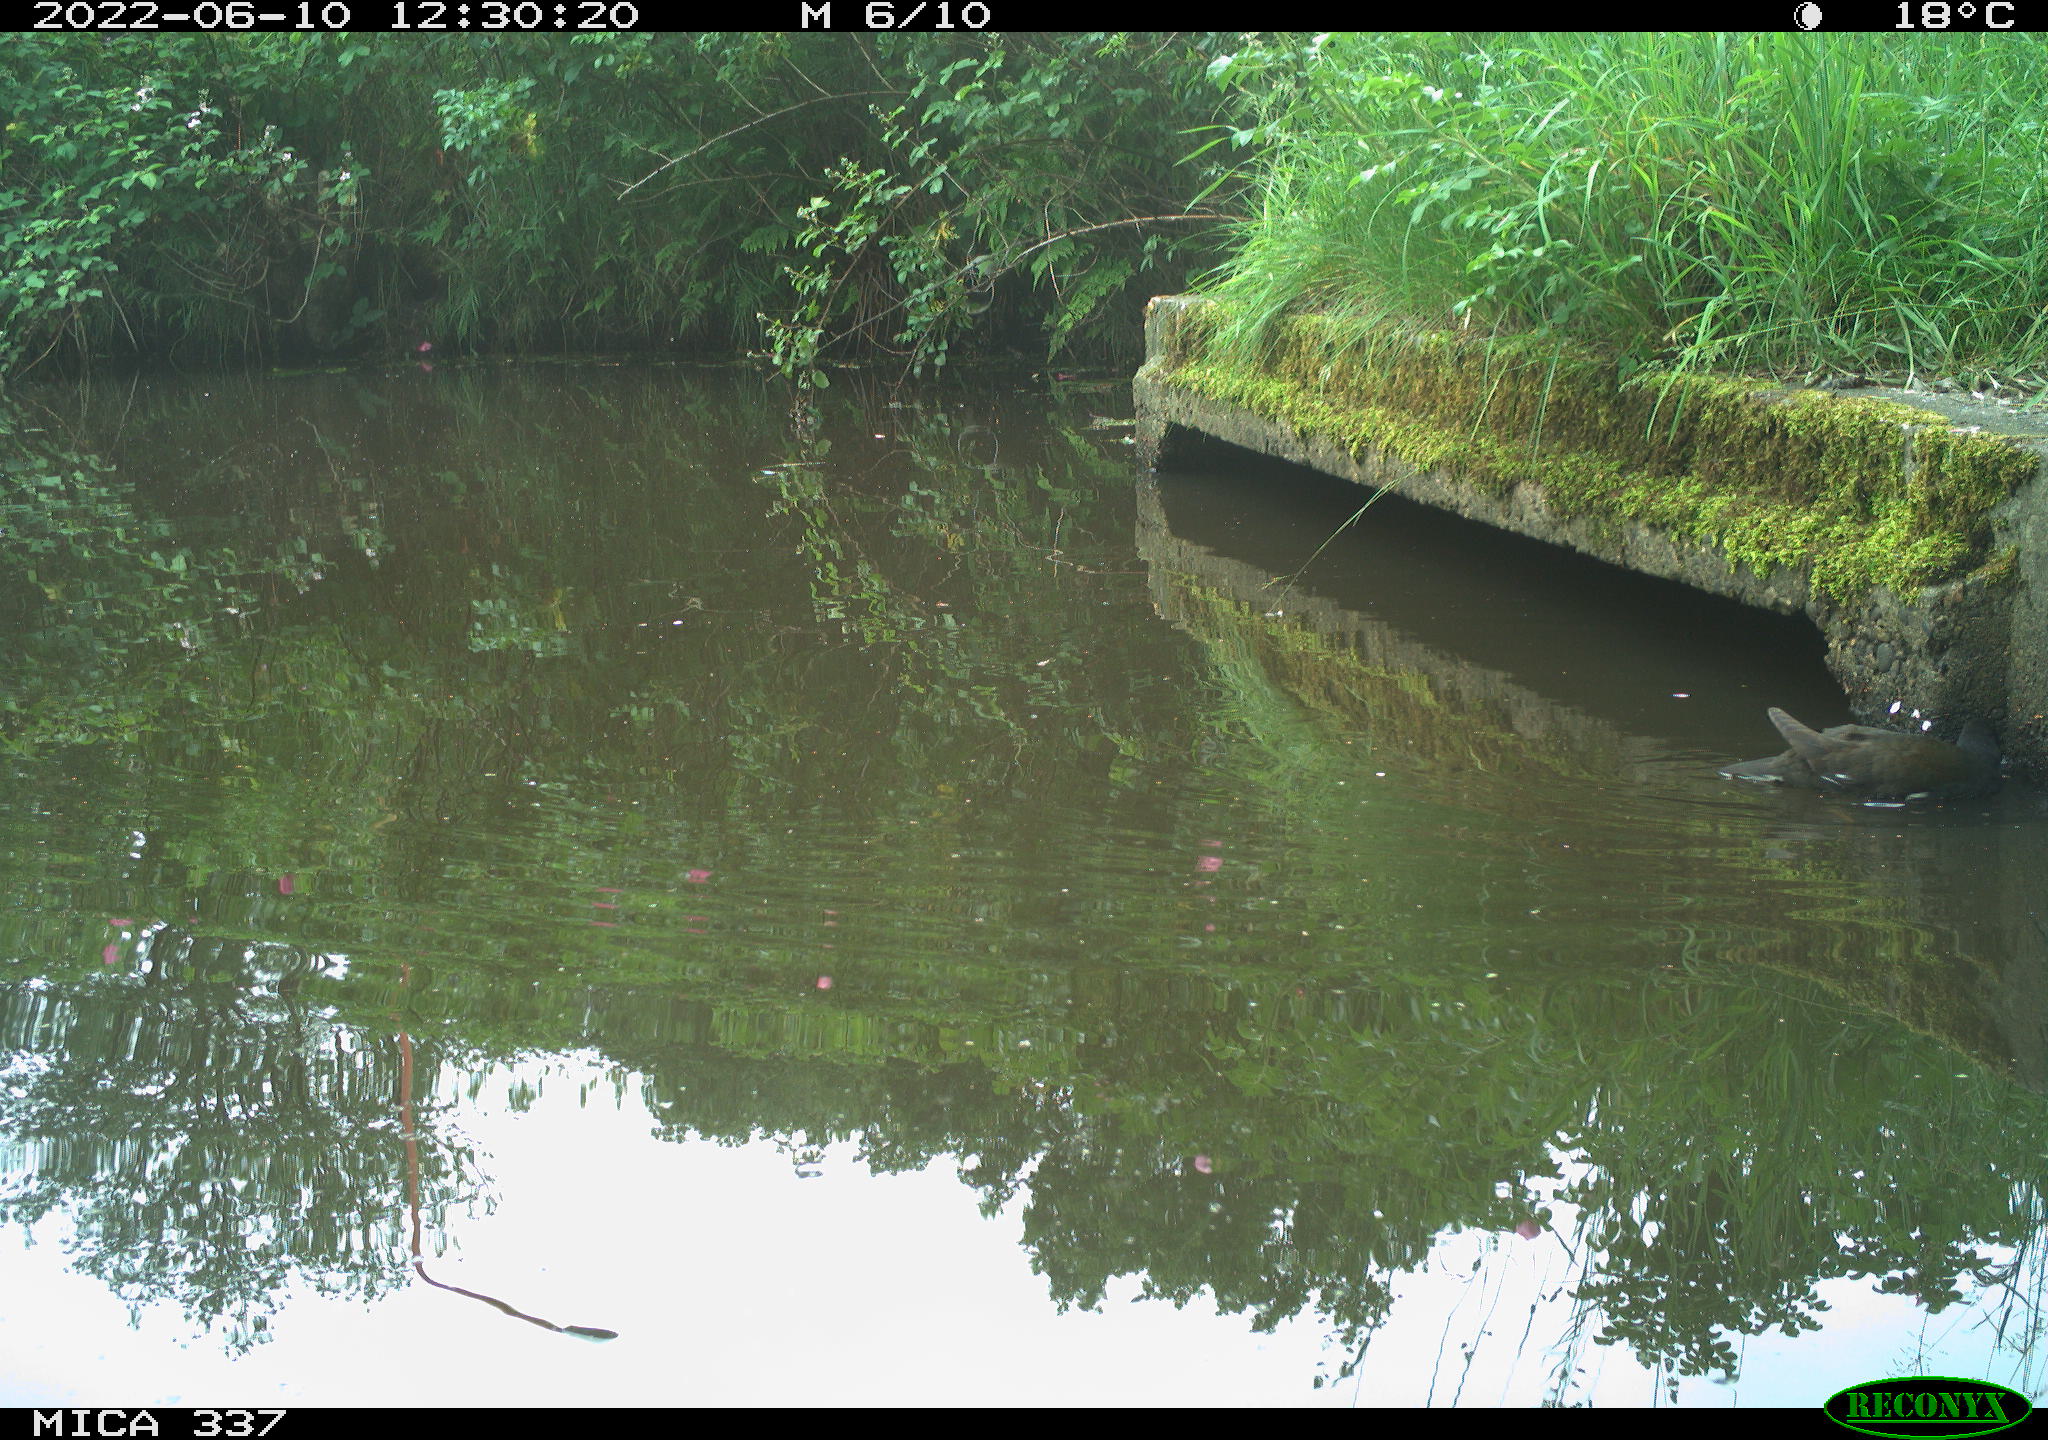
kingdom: Animalia
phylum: Chordata
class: Aves
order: Gruiformes
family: Rallidae
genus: Gallinula
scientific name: Gallinula chloropus
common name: Common moorhen
